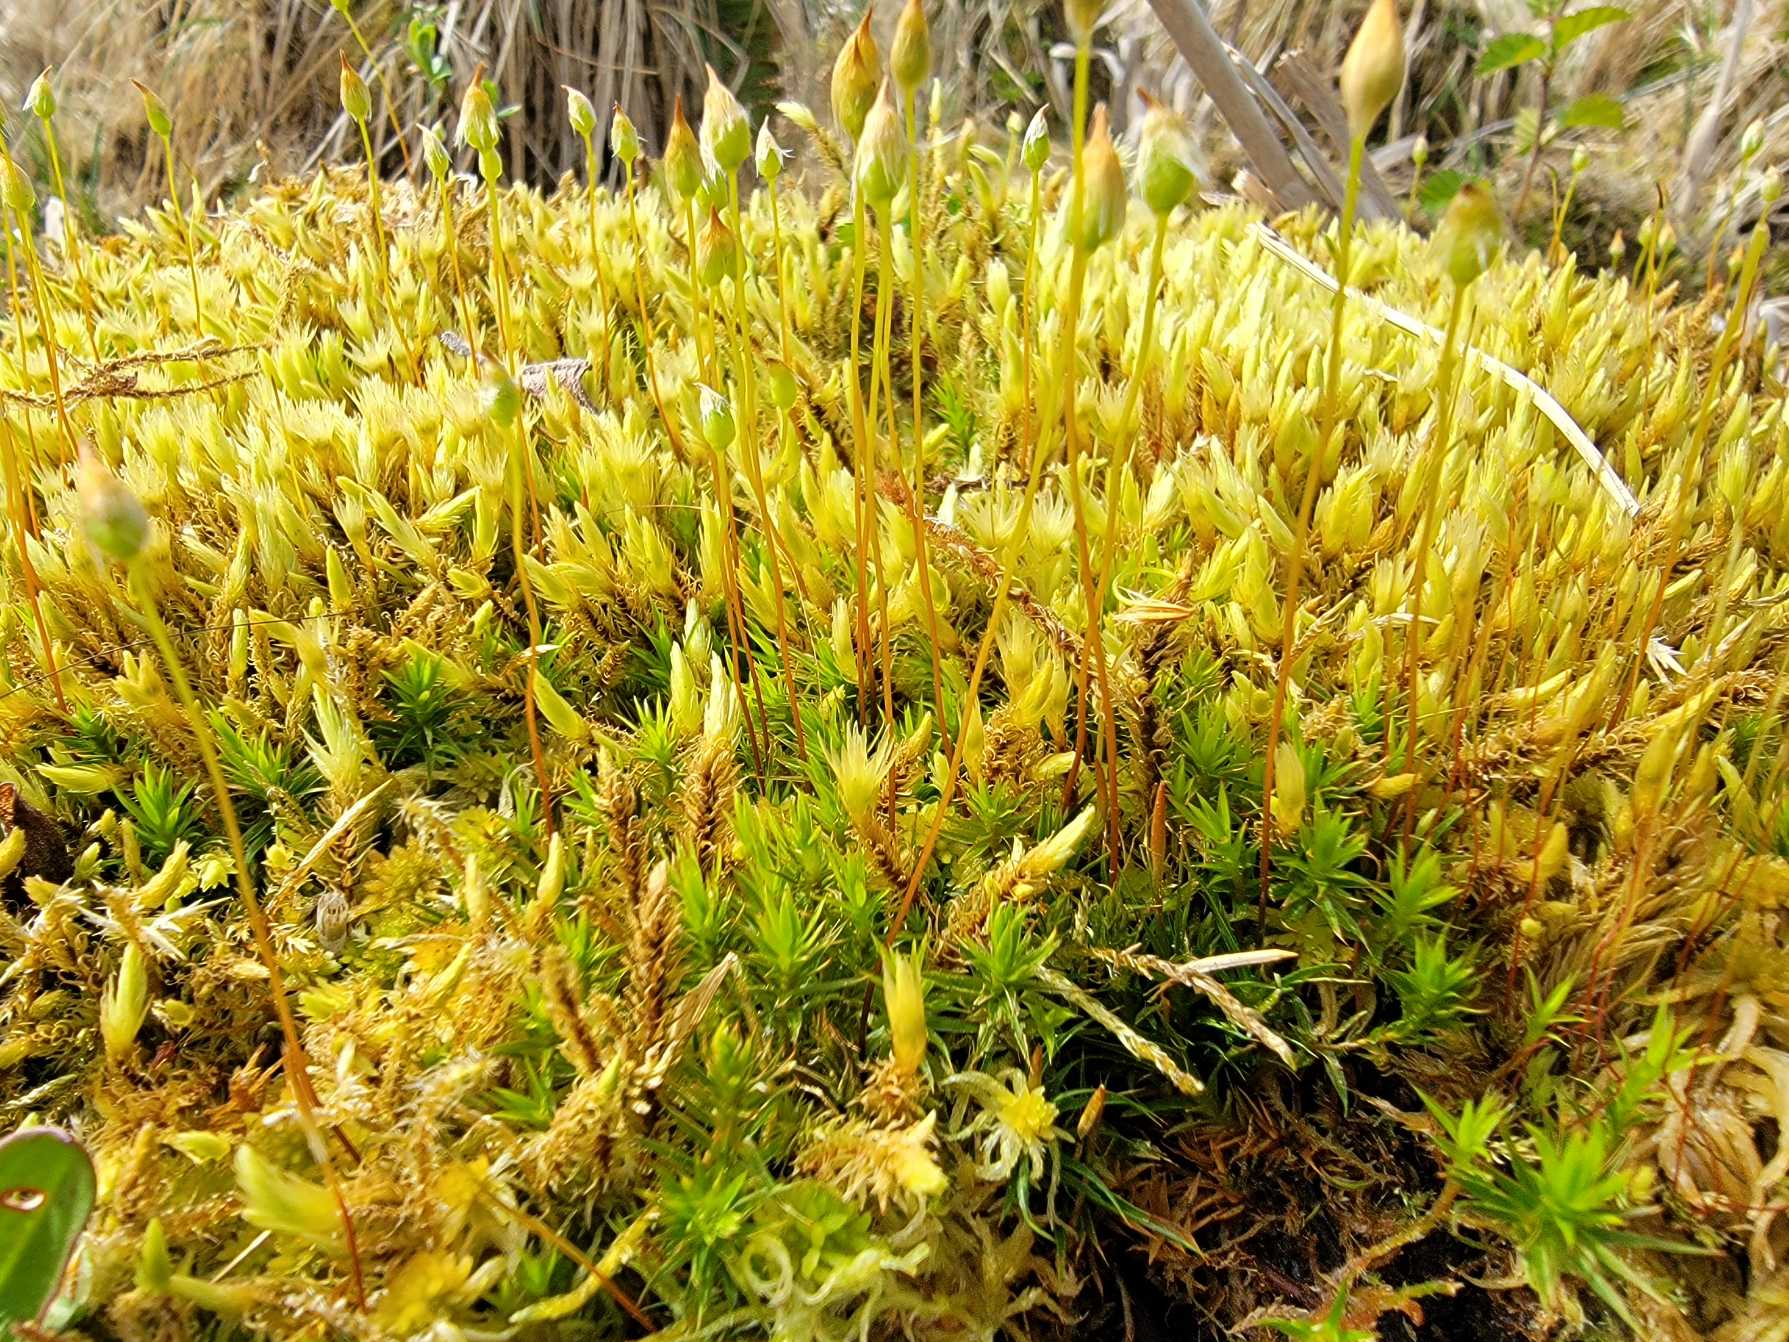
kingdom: Plantae
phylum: Bryophyta
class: Polytrichopsida
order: Polytrichales
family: Polytrichaceae
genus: Polytrichum
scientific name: Polytrichum longisetum
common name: Mose-jomfruhår
